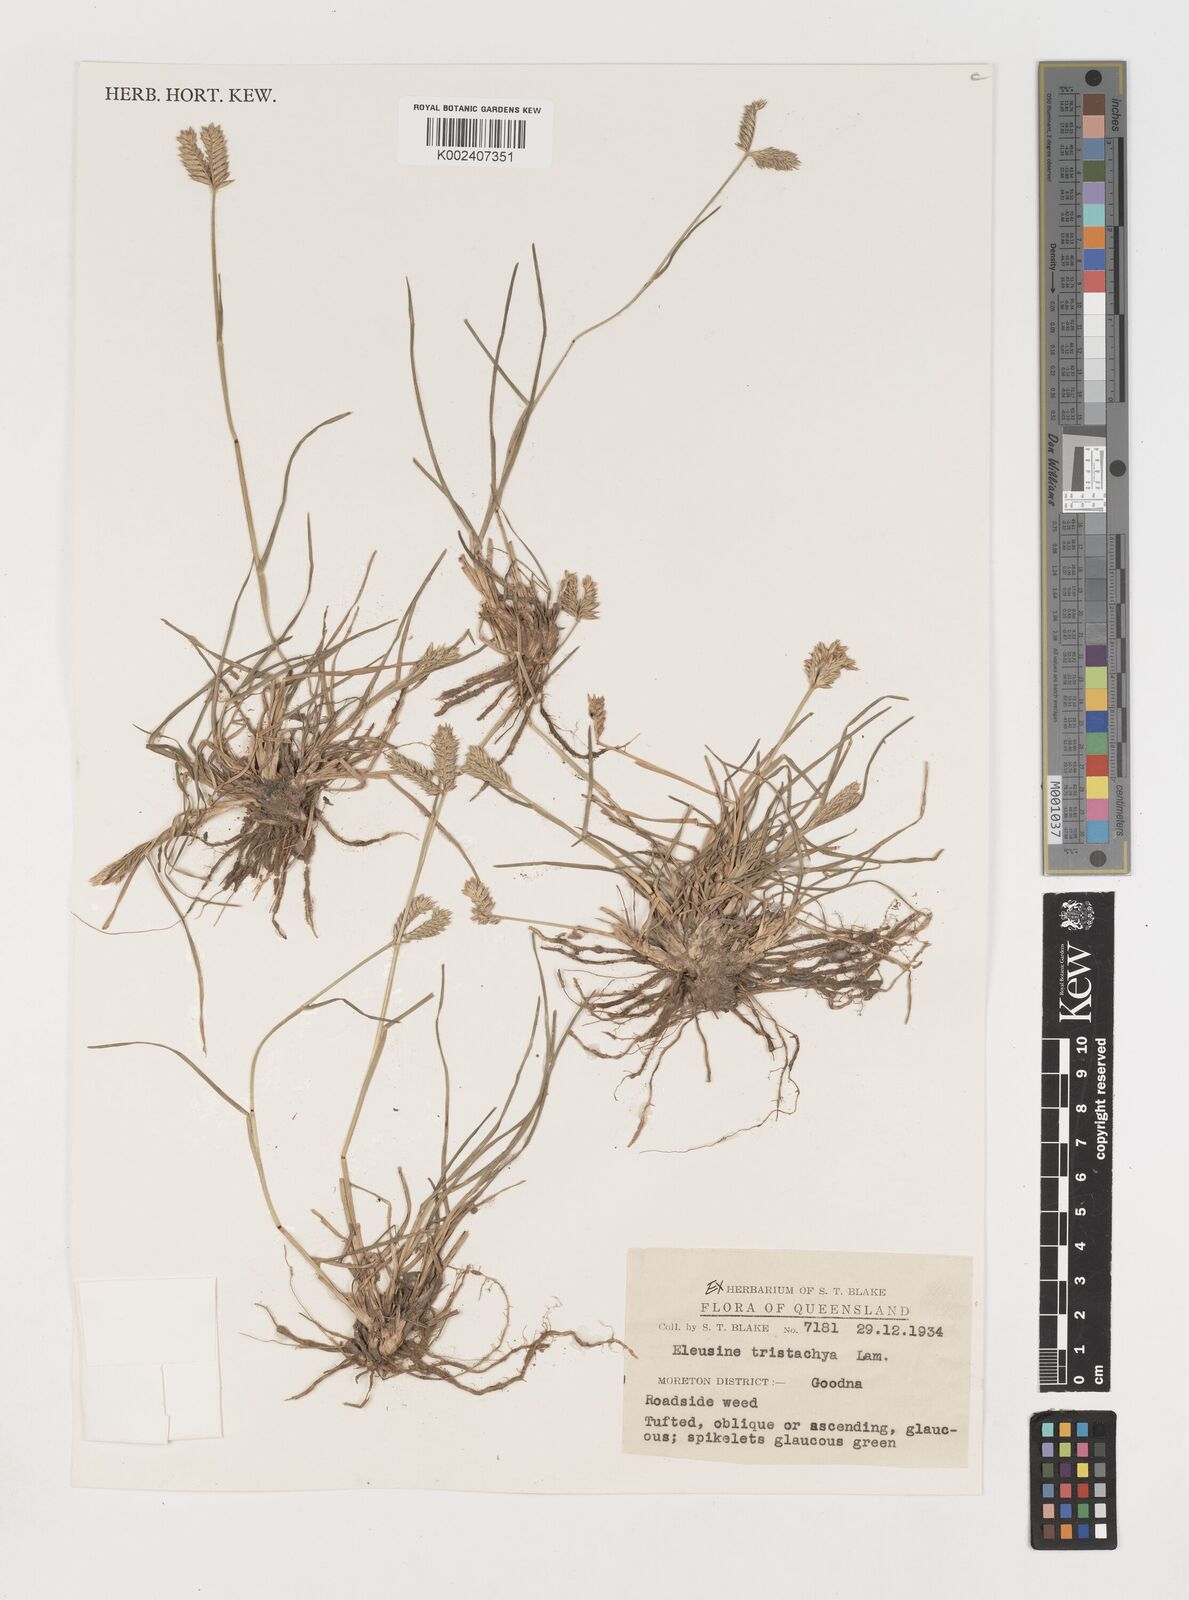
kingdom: Plantae
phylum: Tracheophyta
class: Liliopsida
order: Poales
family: Poaceae
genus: Eleusine
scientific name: Eleusine tristachya
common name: American yard-grass
